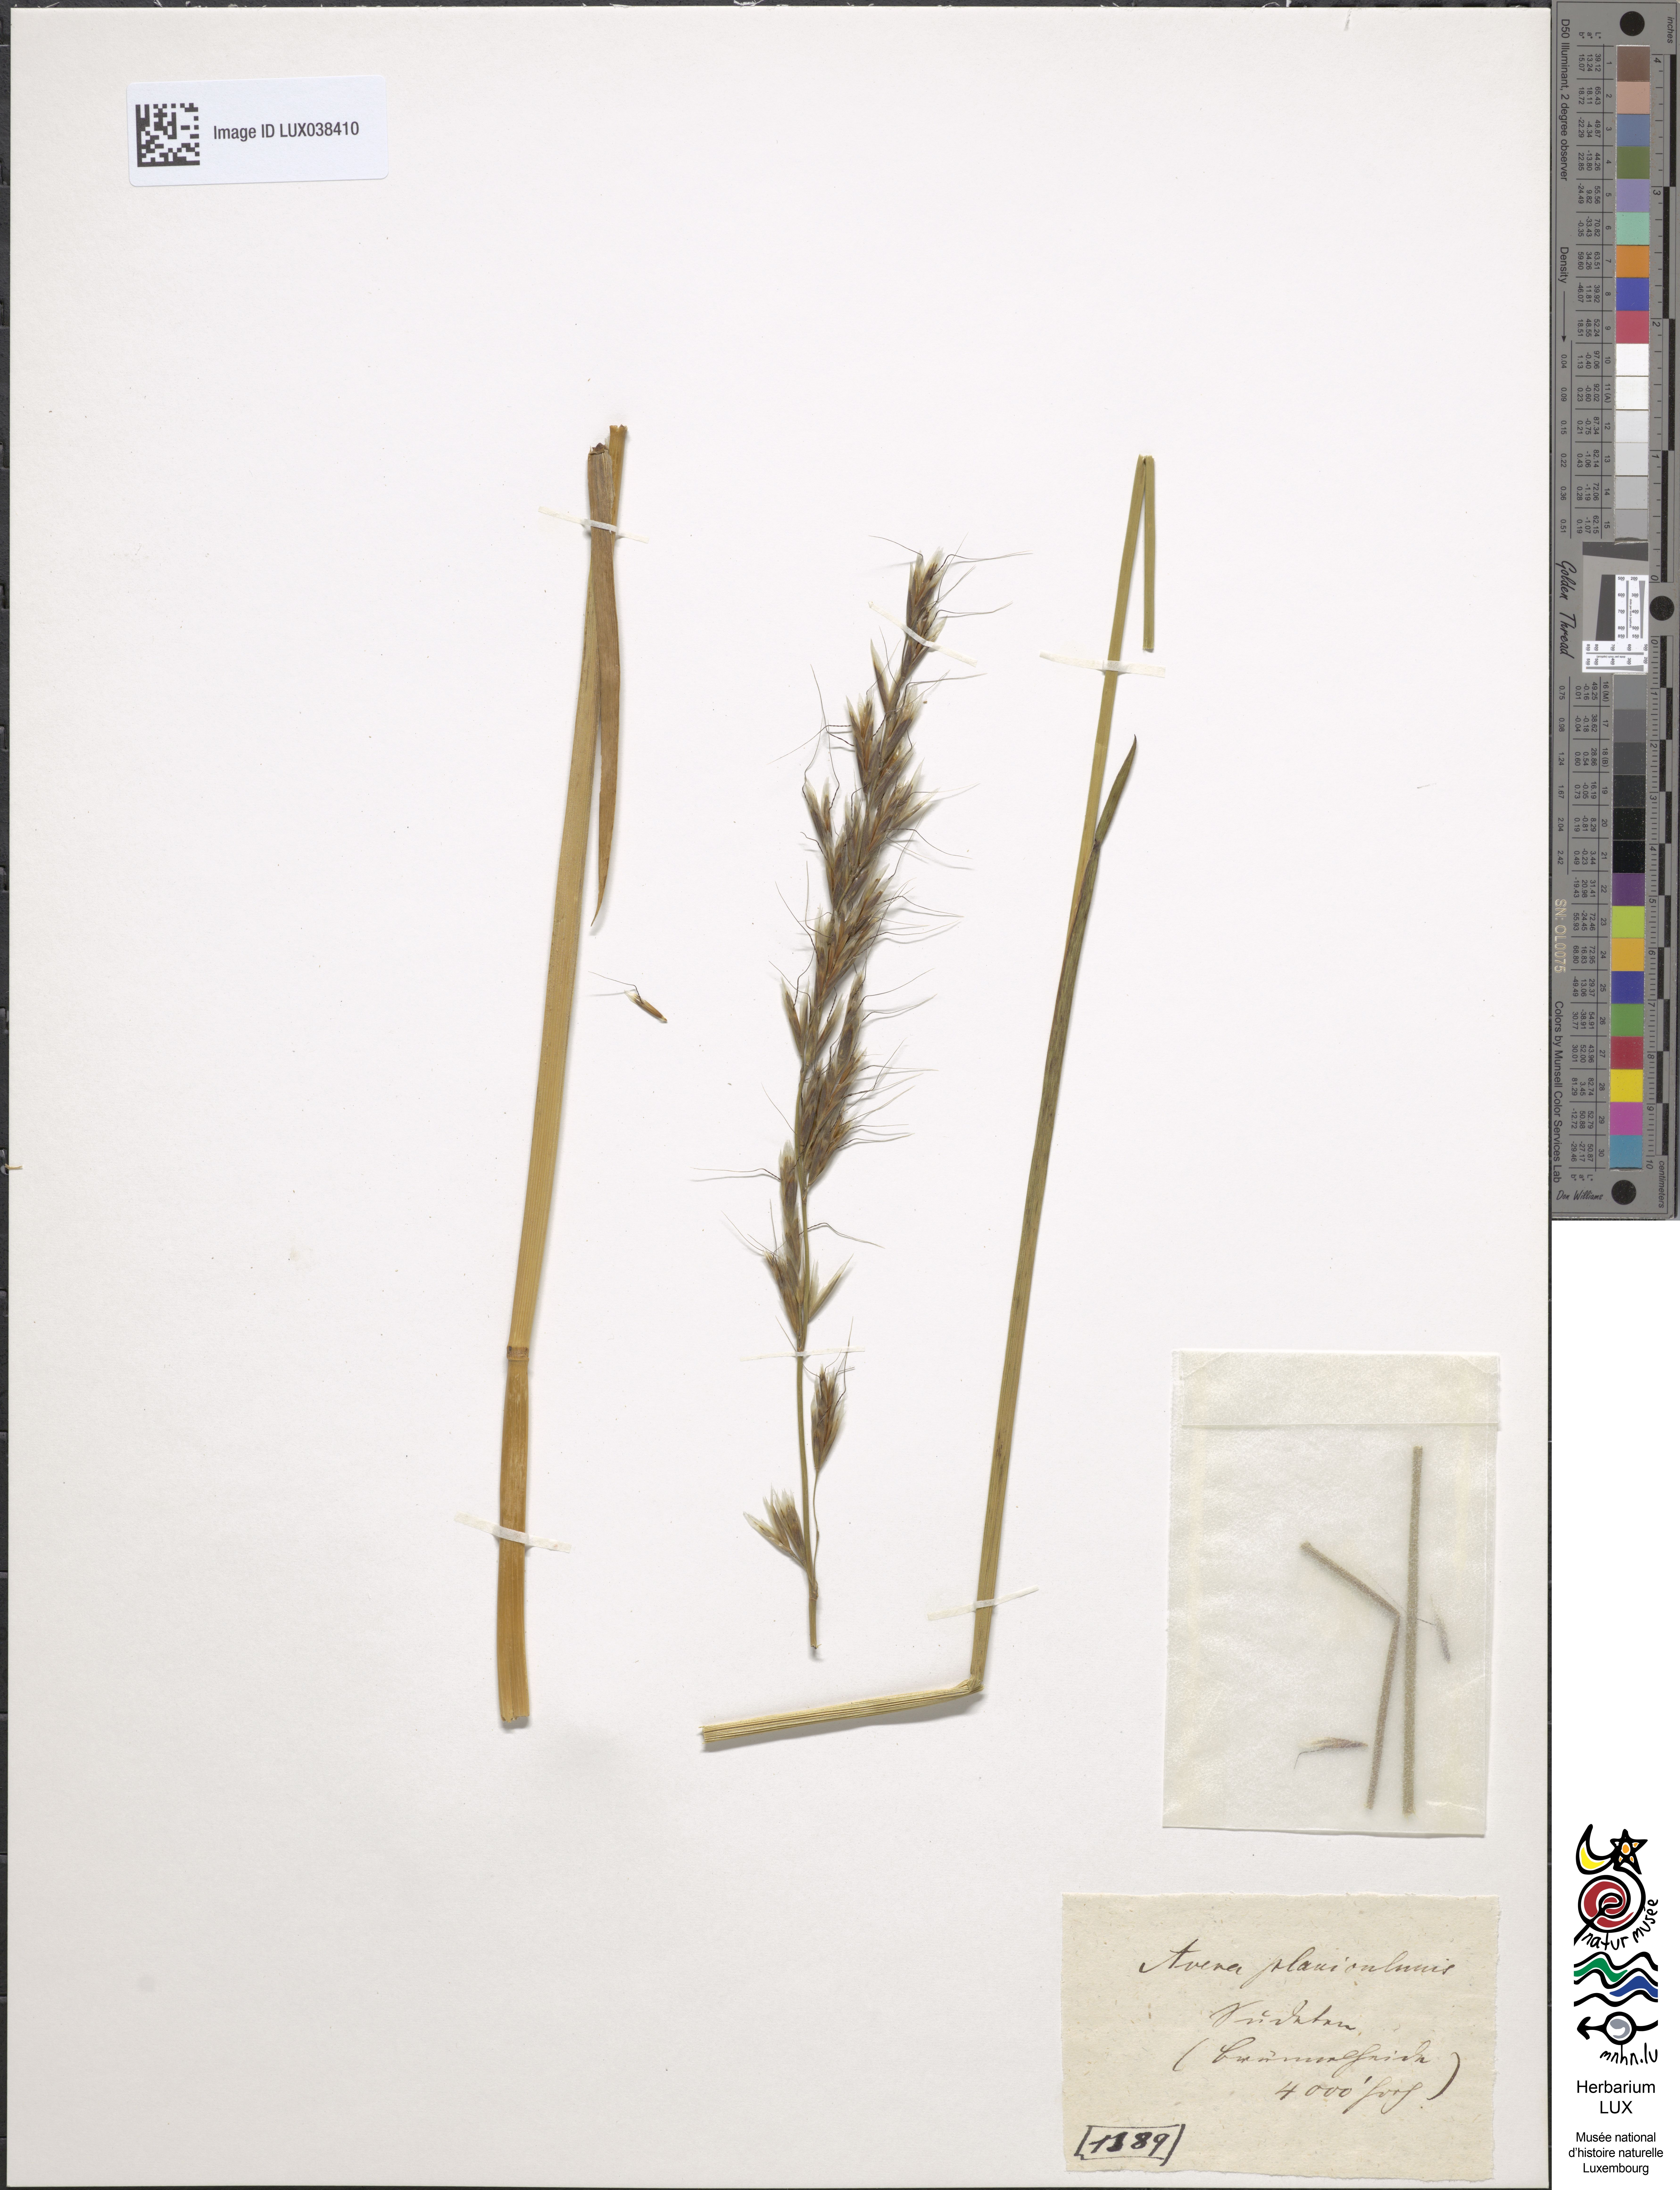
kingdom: Plantae
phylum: Tracheophyta
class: Liliopsida
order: Poales
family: Poaceae
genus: Helictochloa
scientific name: Helictochloa planiculmis
